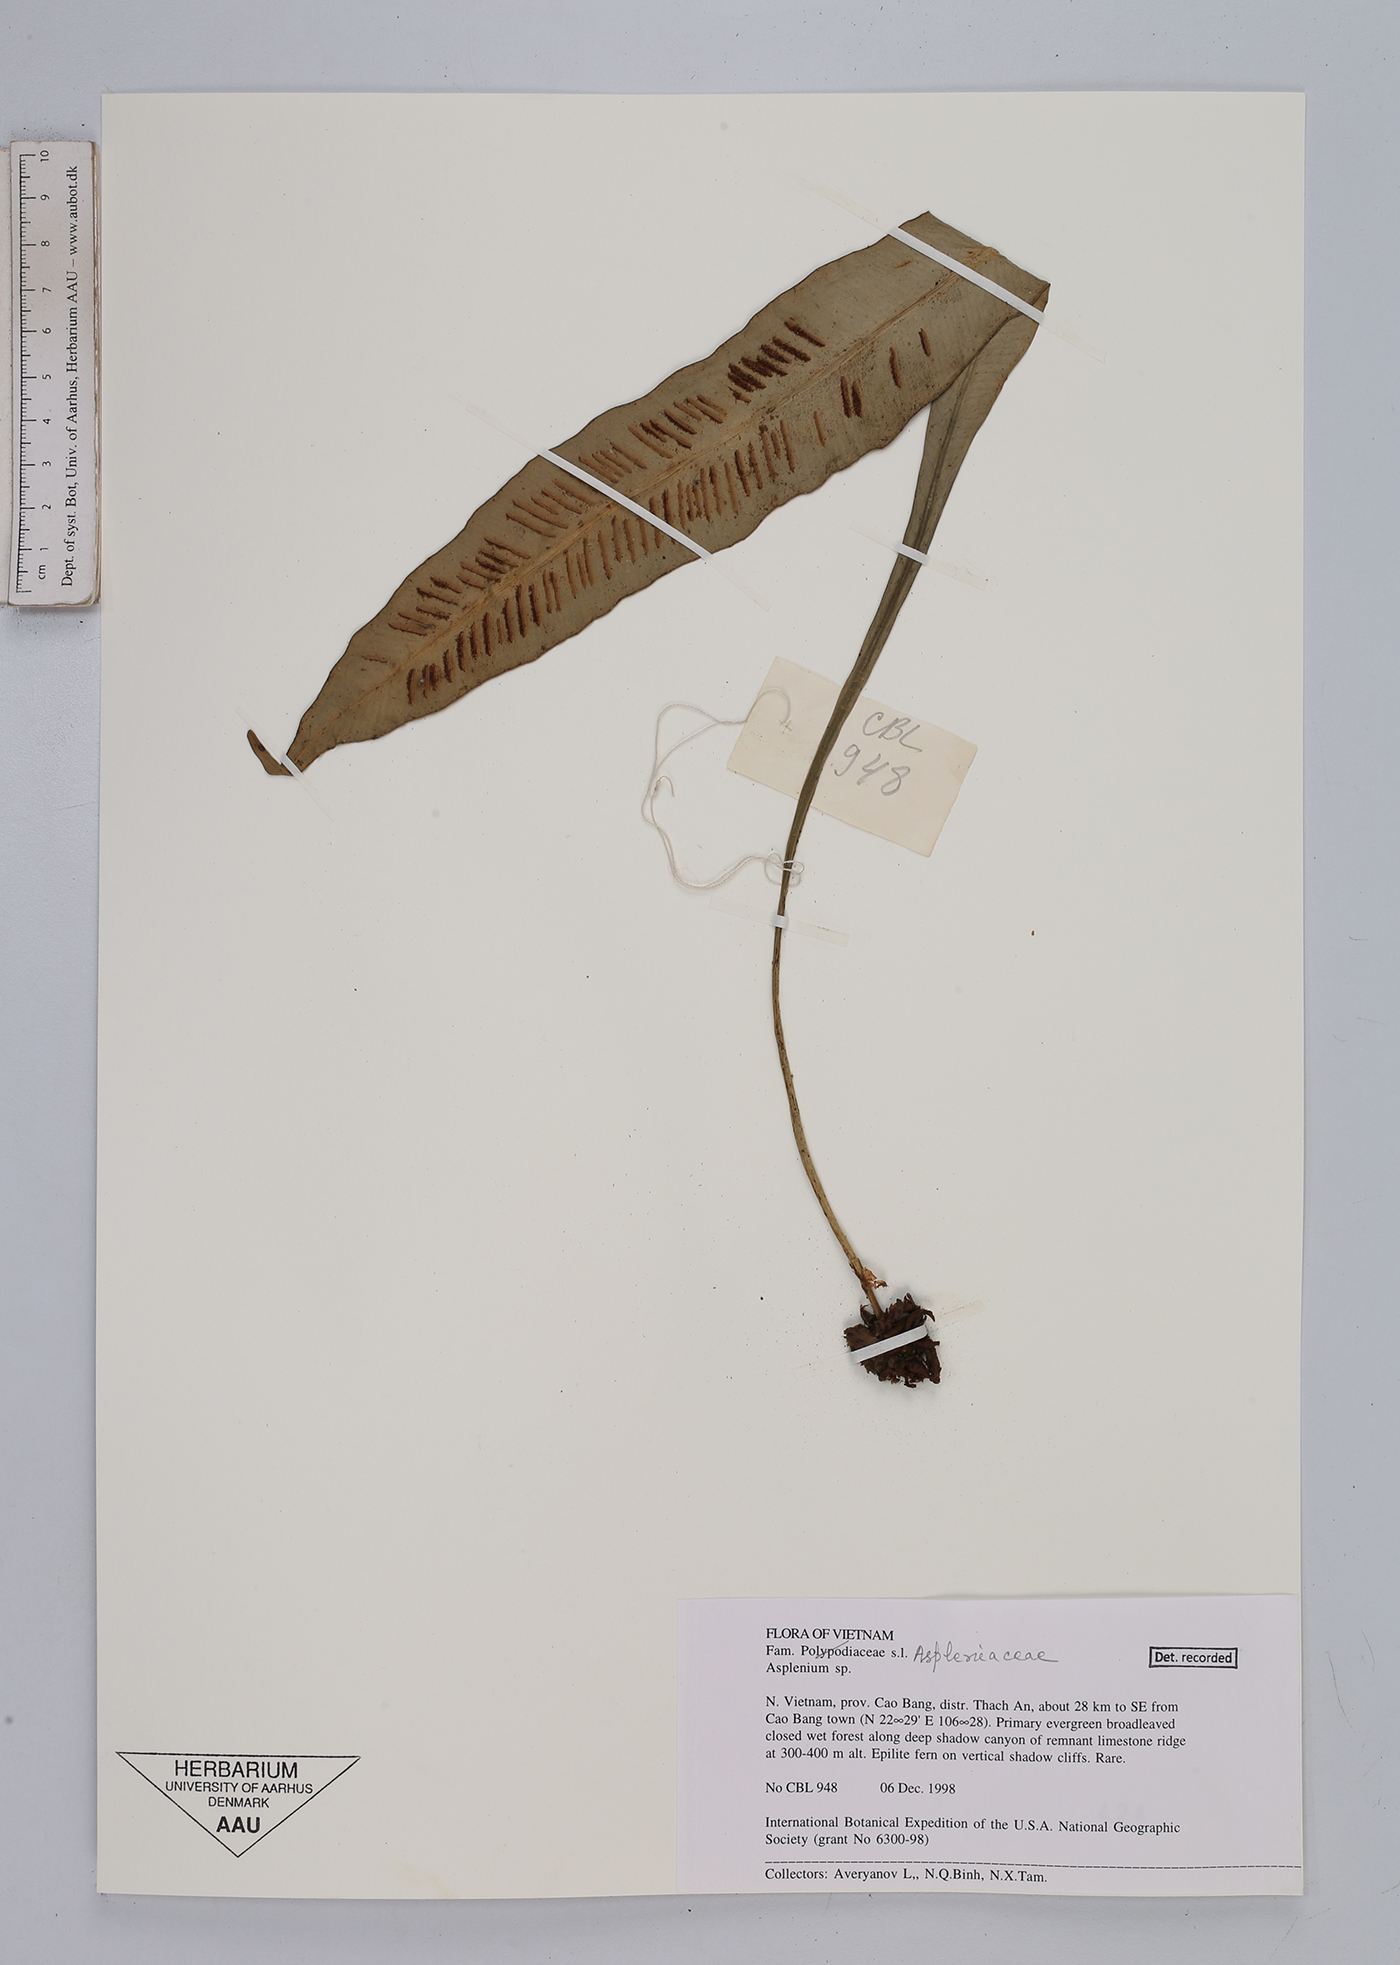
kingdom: Plantae
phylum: Tracheophyta
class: Polypodiopsida
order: Polypodiales
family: Aspleniaceae
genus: Asplenium
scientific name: Asplenium
